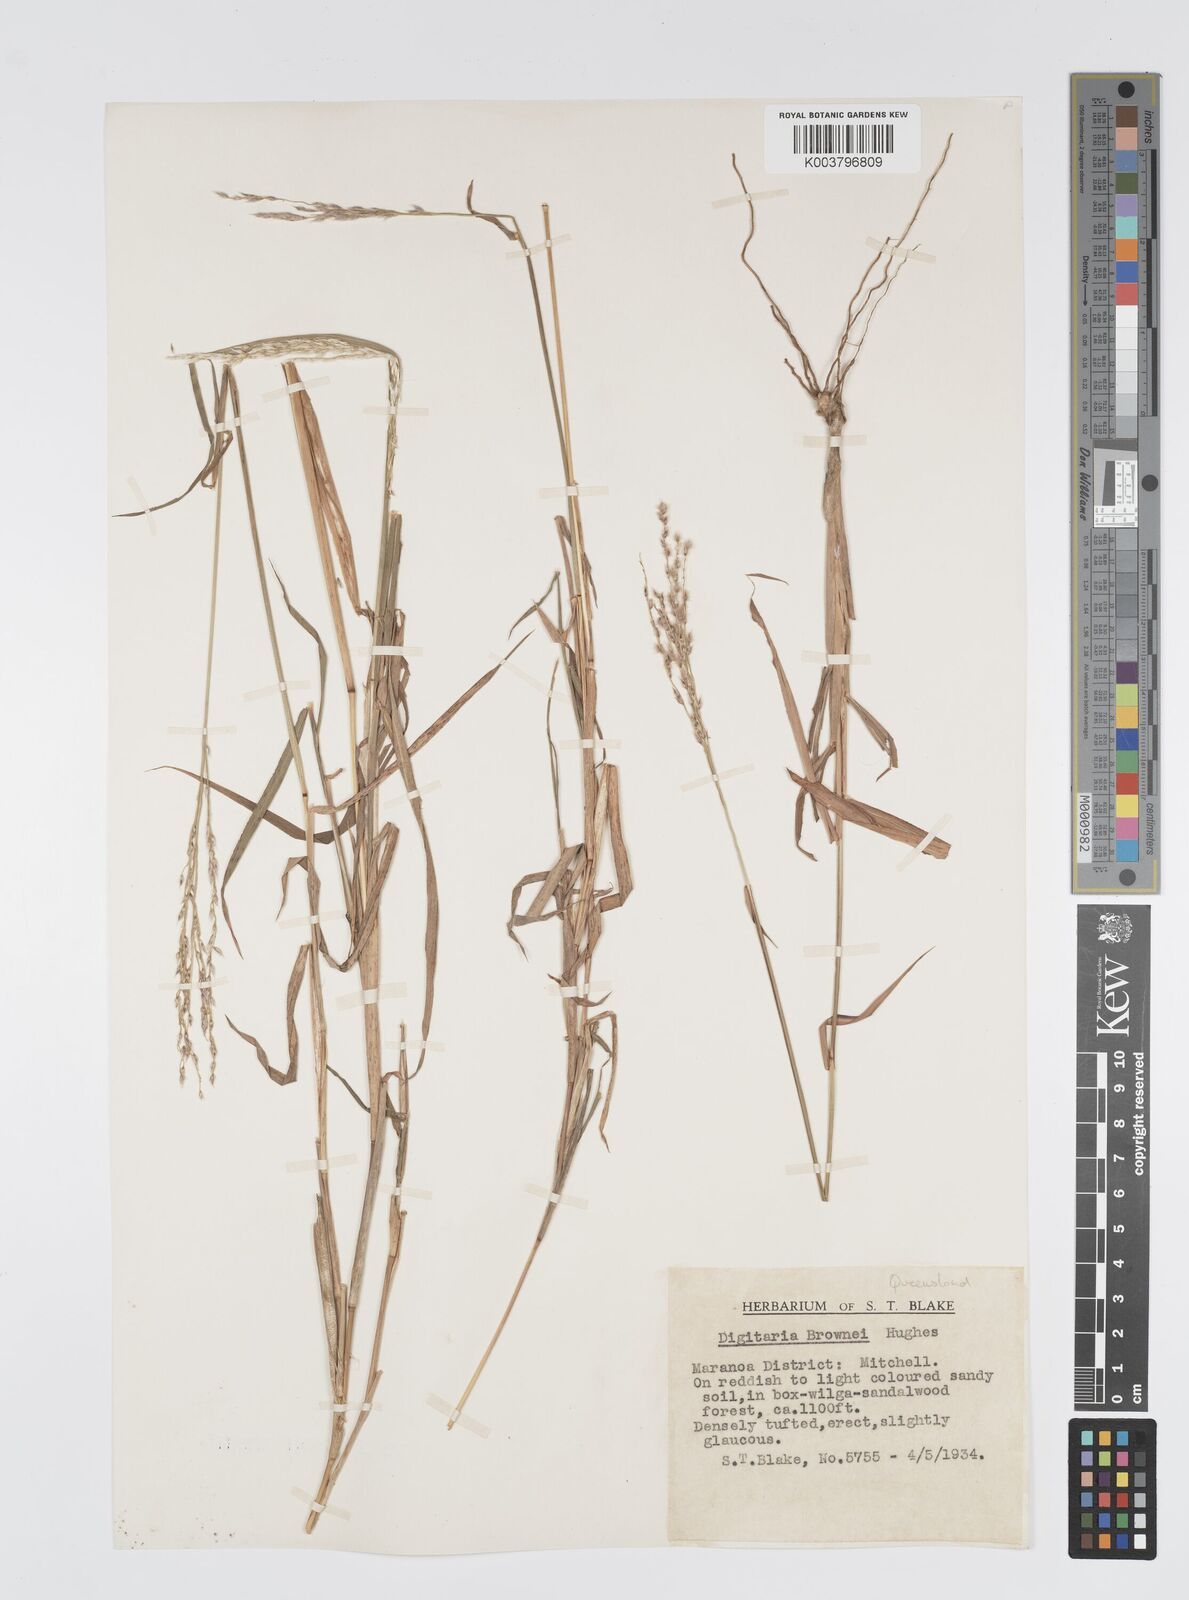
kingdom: Plantae
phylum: Tracheophyta
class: Liliopsida
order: Poales
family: Poaceae
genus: Digitaria
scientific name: Digitaria brownii
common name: Cotton grass
